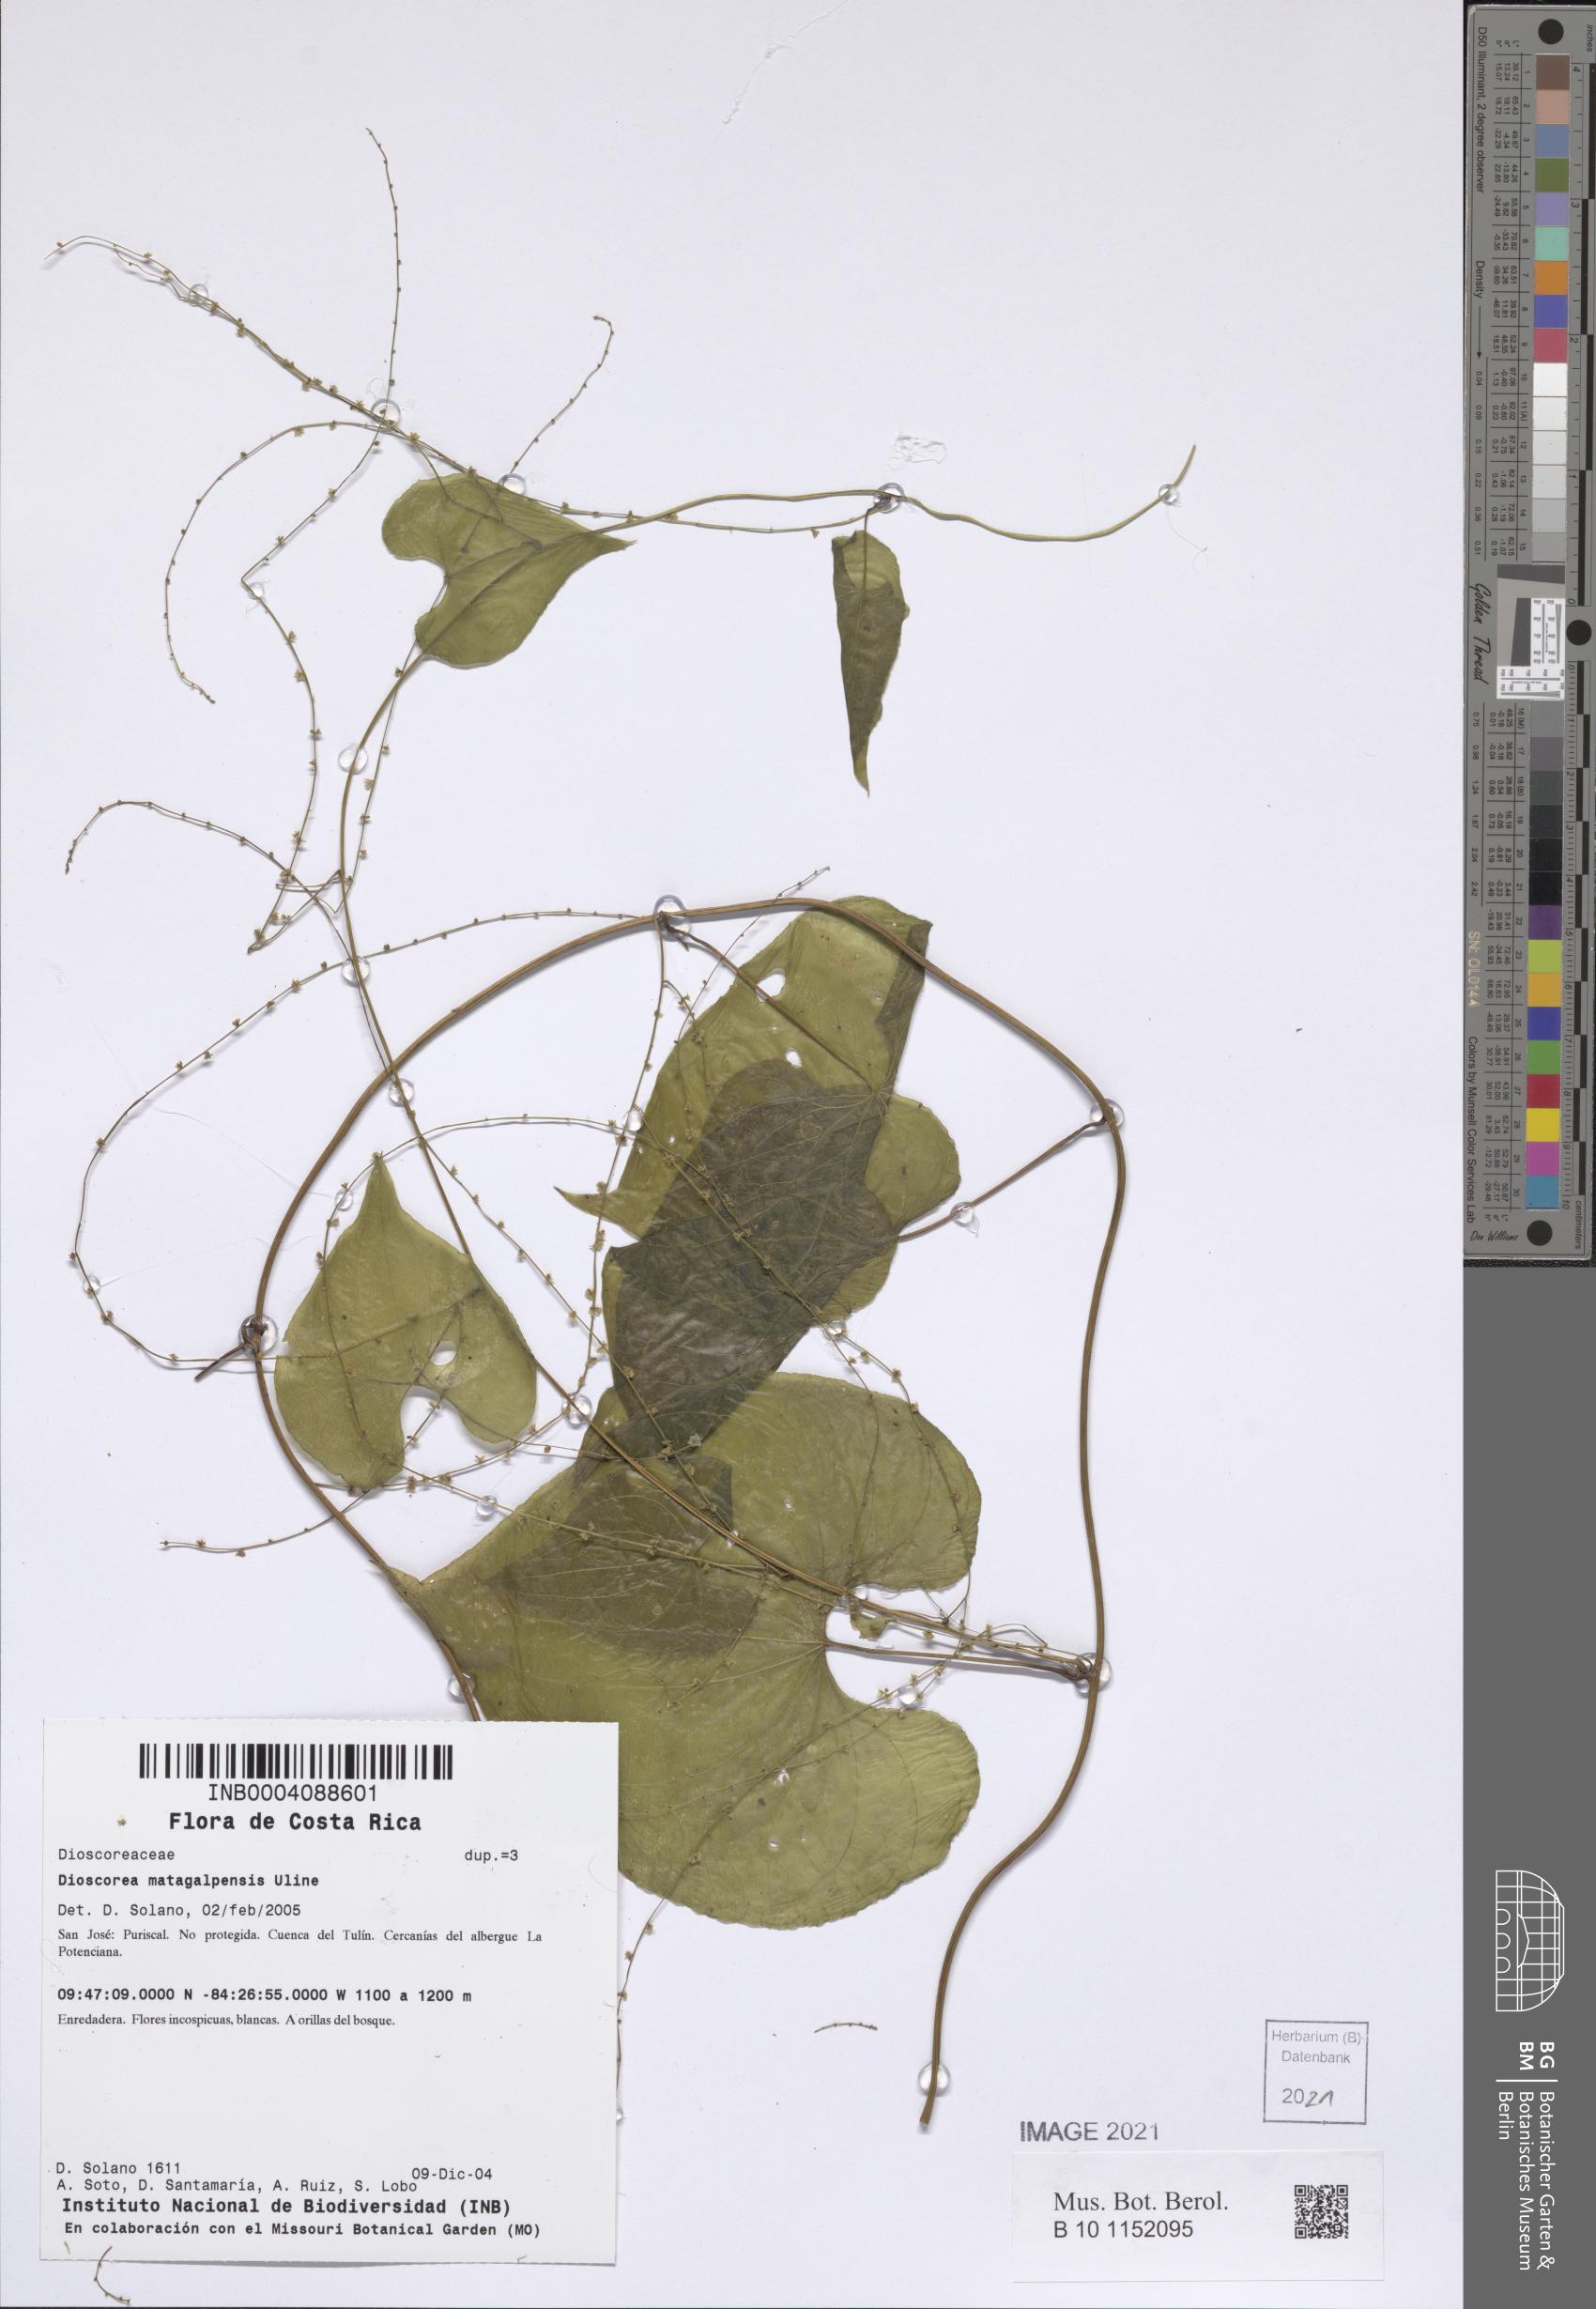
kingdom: Plantae
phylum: Tracheophyta
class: Liliopsida
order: Dioscoreales
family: Dioscoreaceae
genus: Dioscorea
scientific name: Dioscorea matagalpensis
